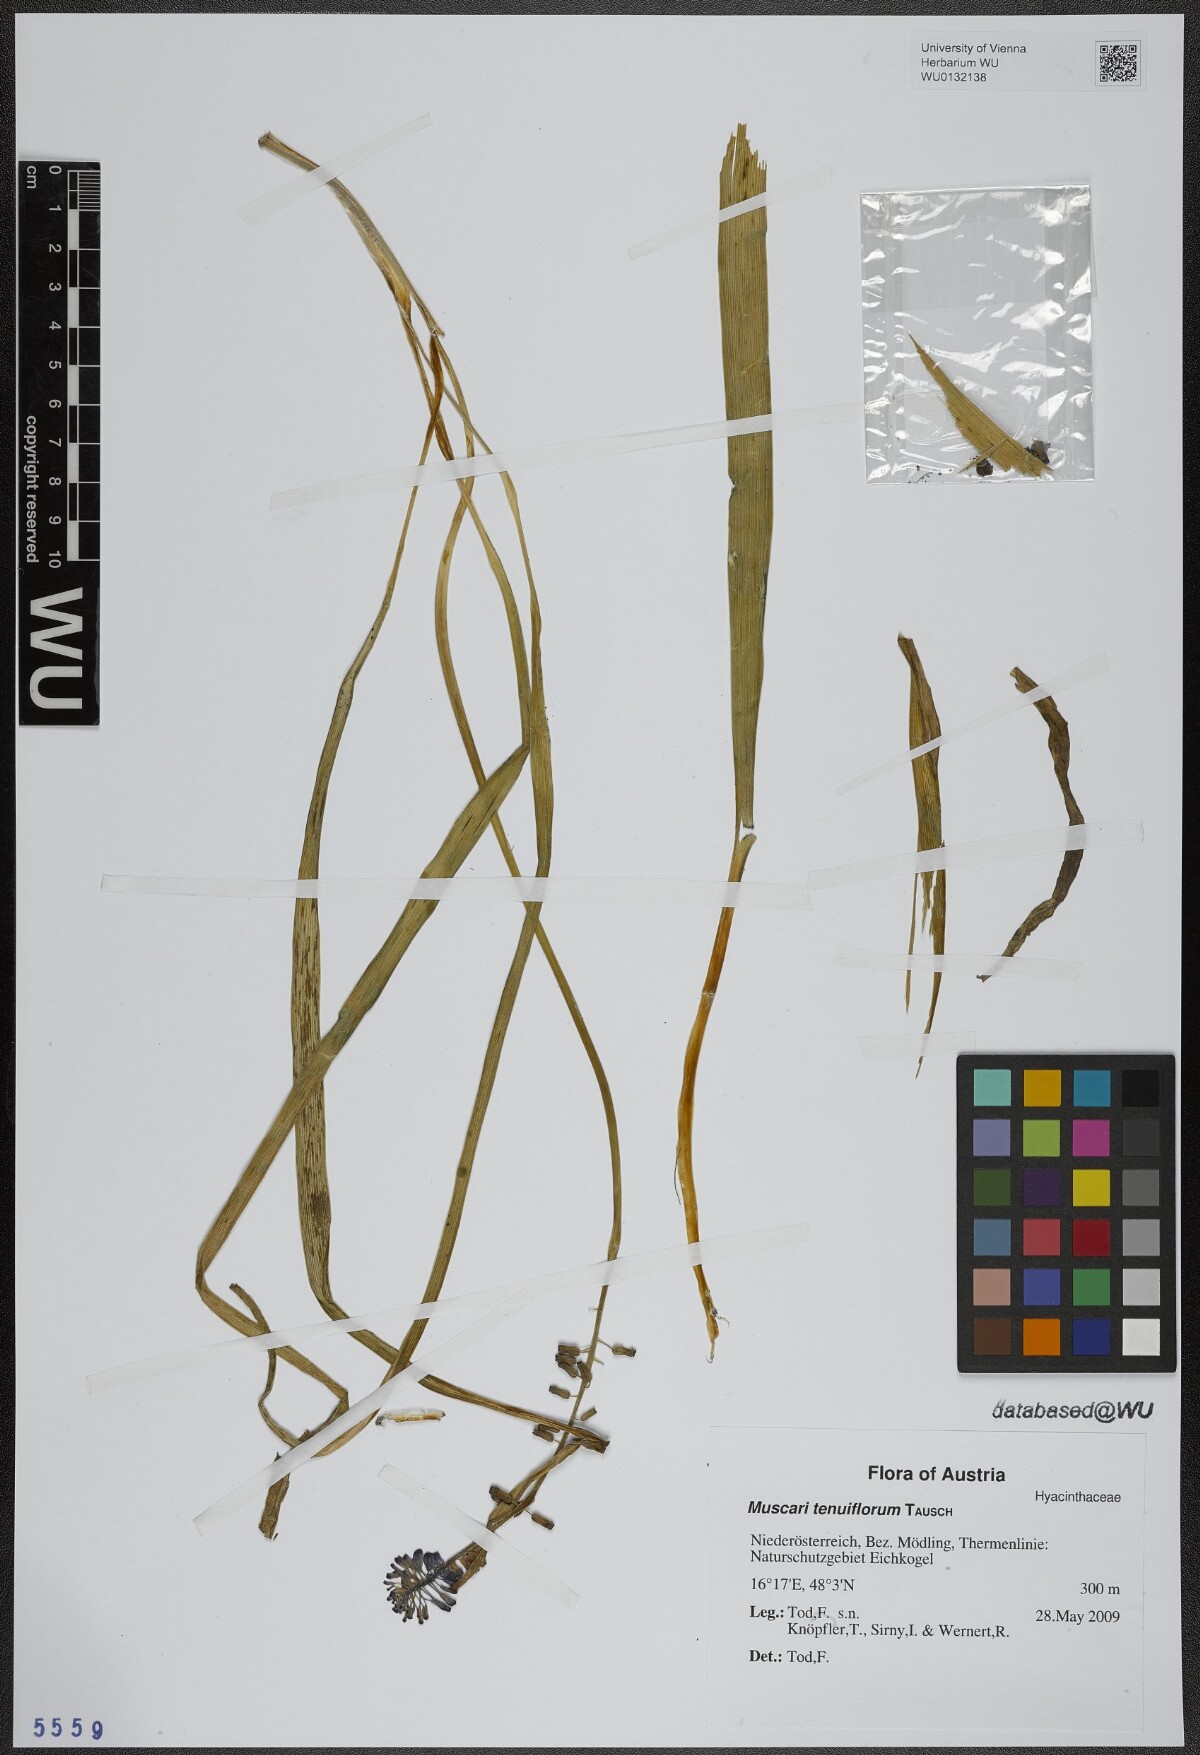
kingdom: Plantae
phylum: Tracheophyta
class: Liliopsida
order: Asparagales
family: Asparagaceae
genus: Muscari
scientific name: Muscari tenuiflorum
